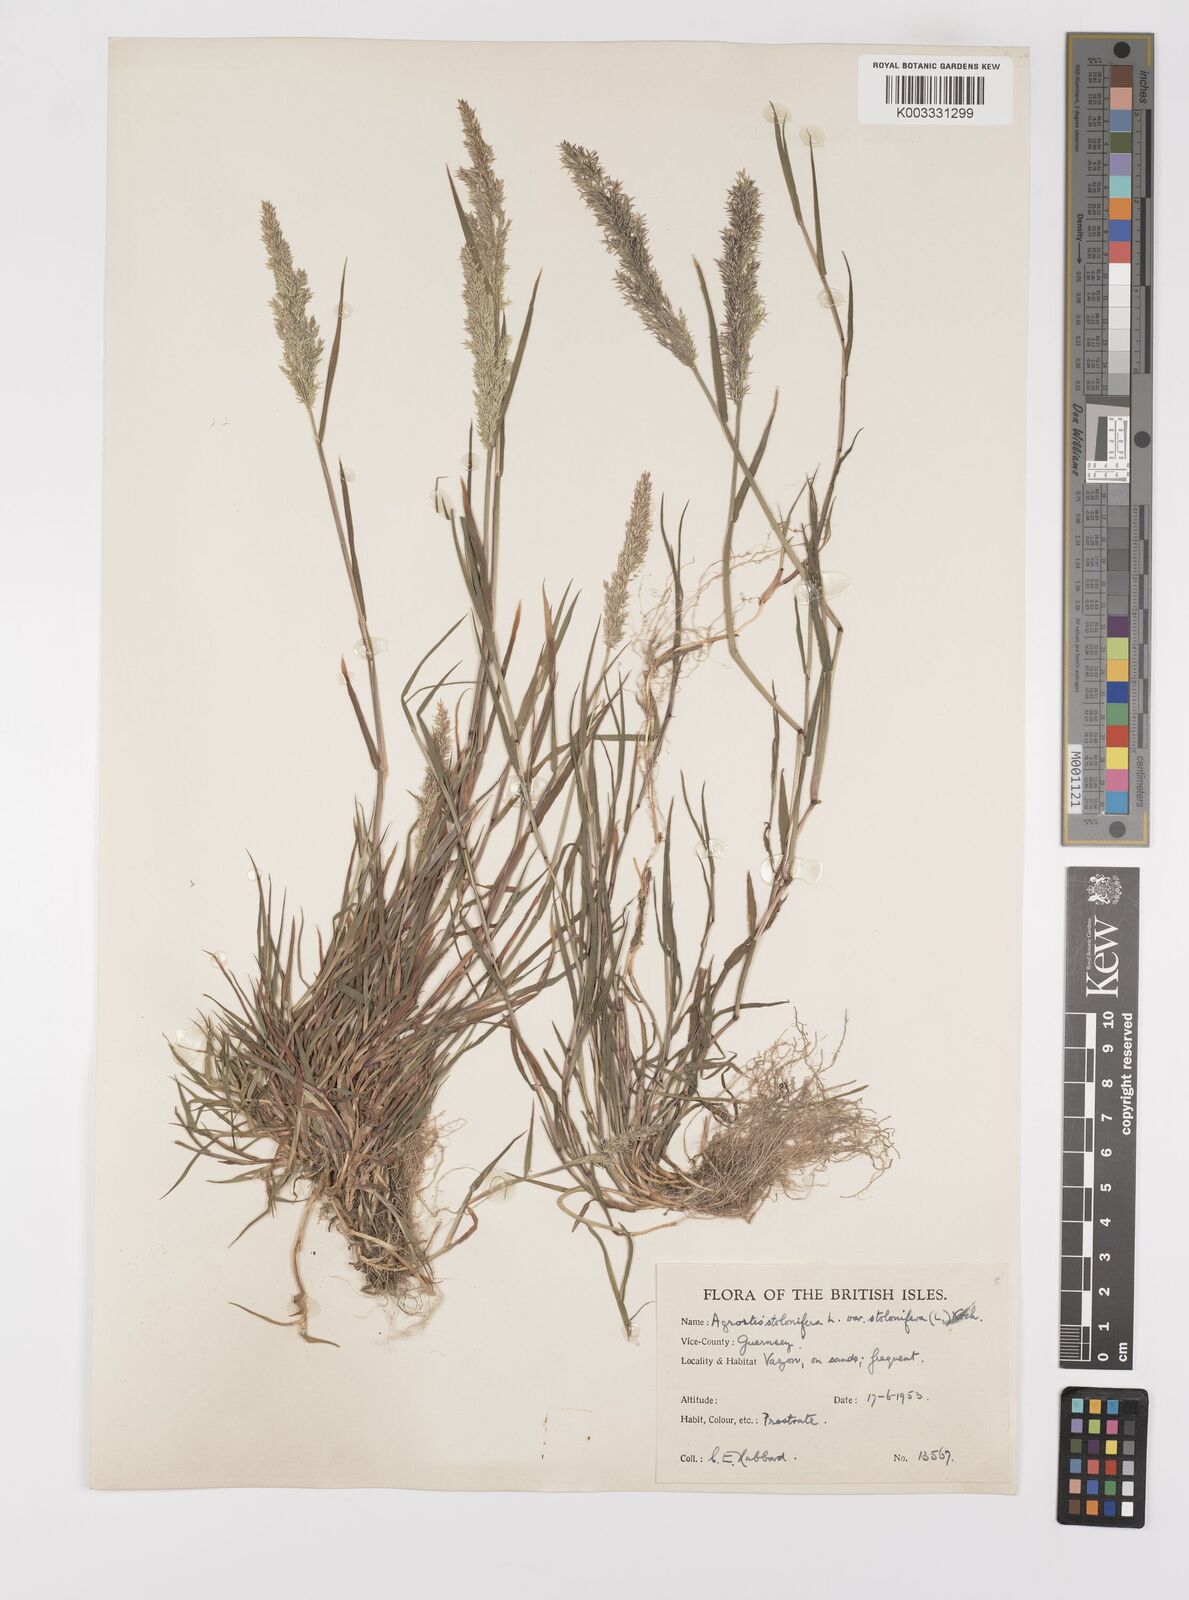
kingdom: Plantae
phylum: Tracheophyta
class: Liliopsida
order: Poales
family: Poaceae
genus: Polypogon
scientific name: Polypogon viridis
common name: Water bent
